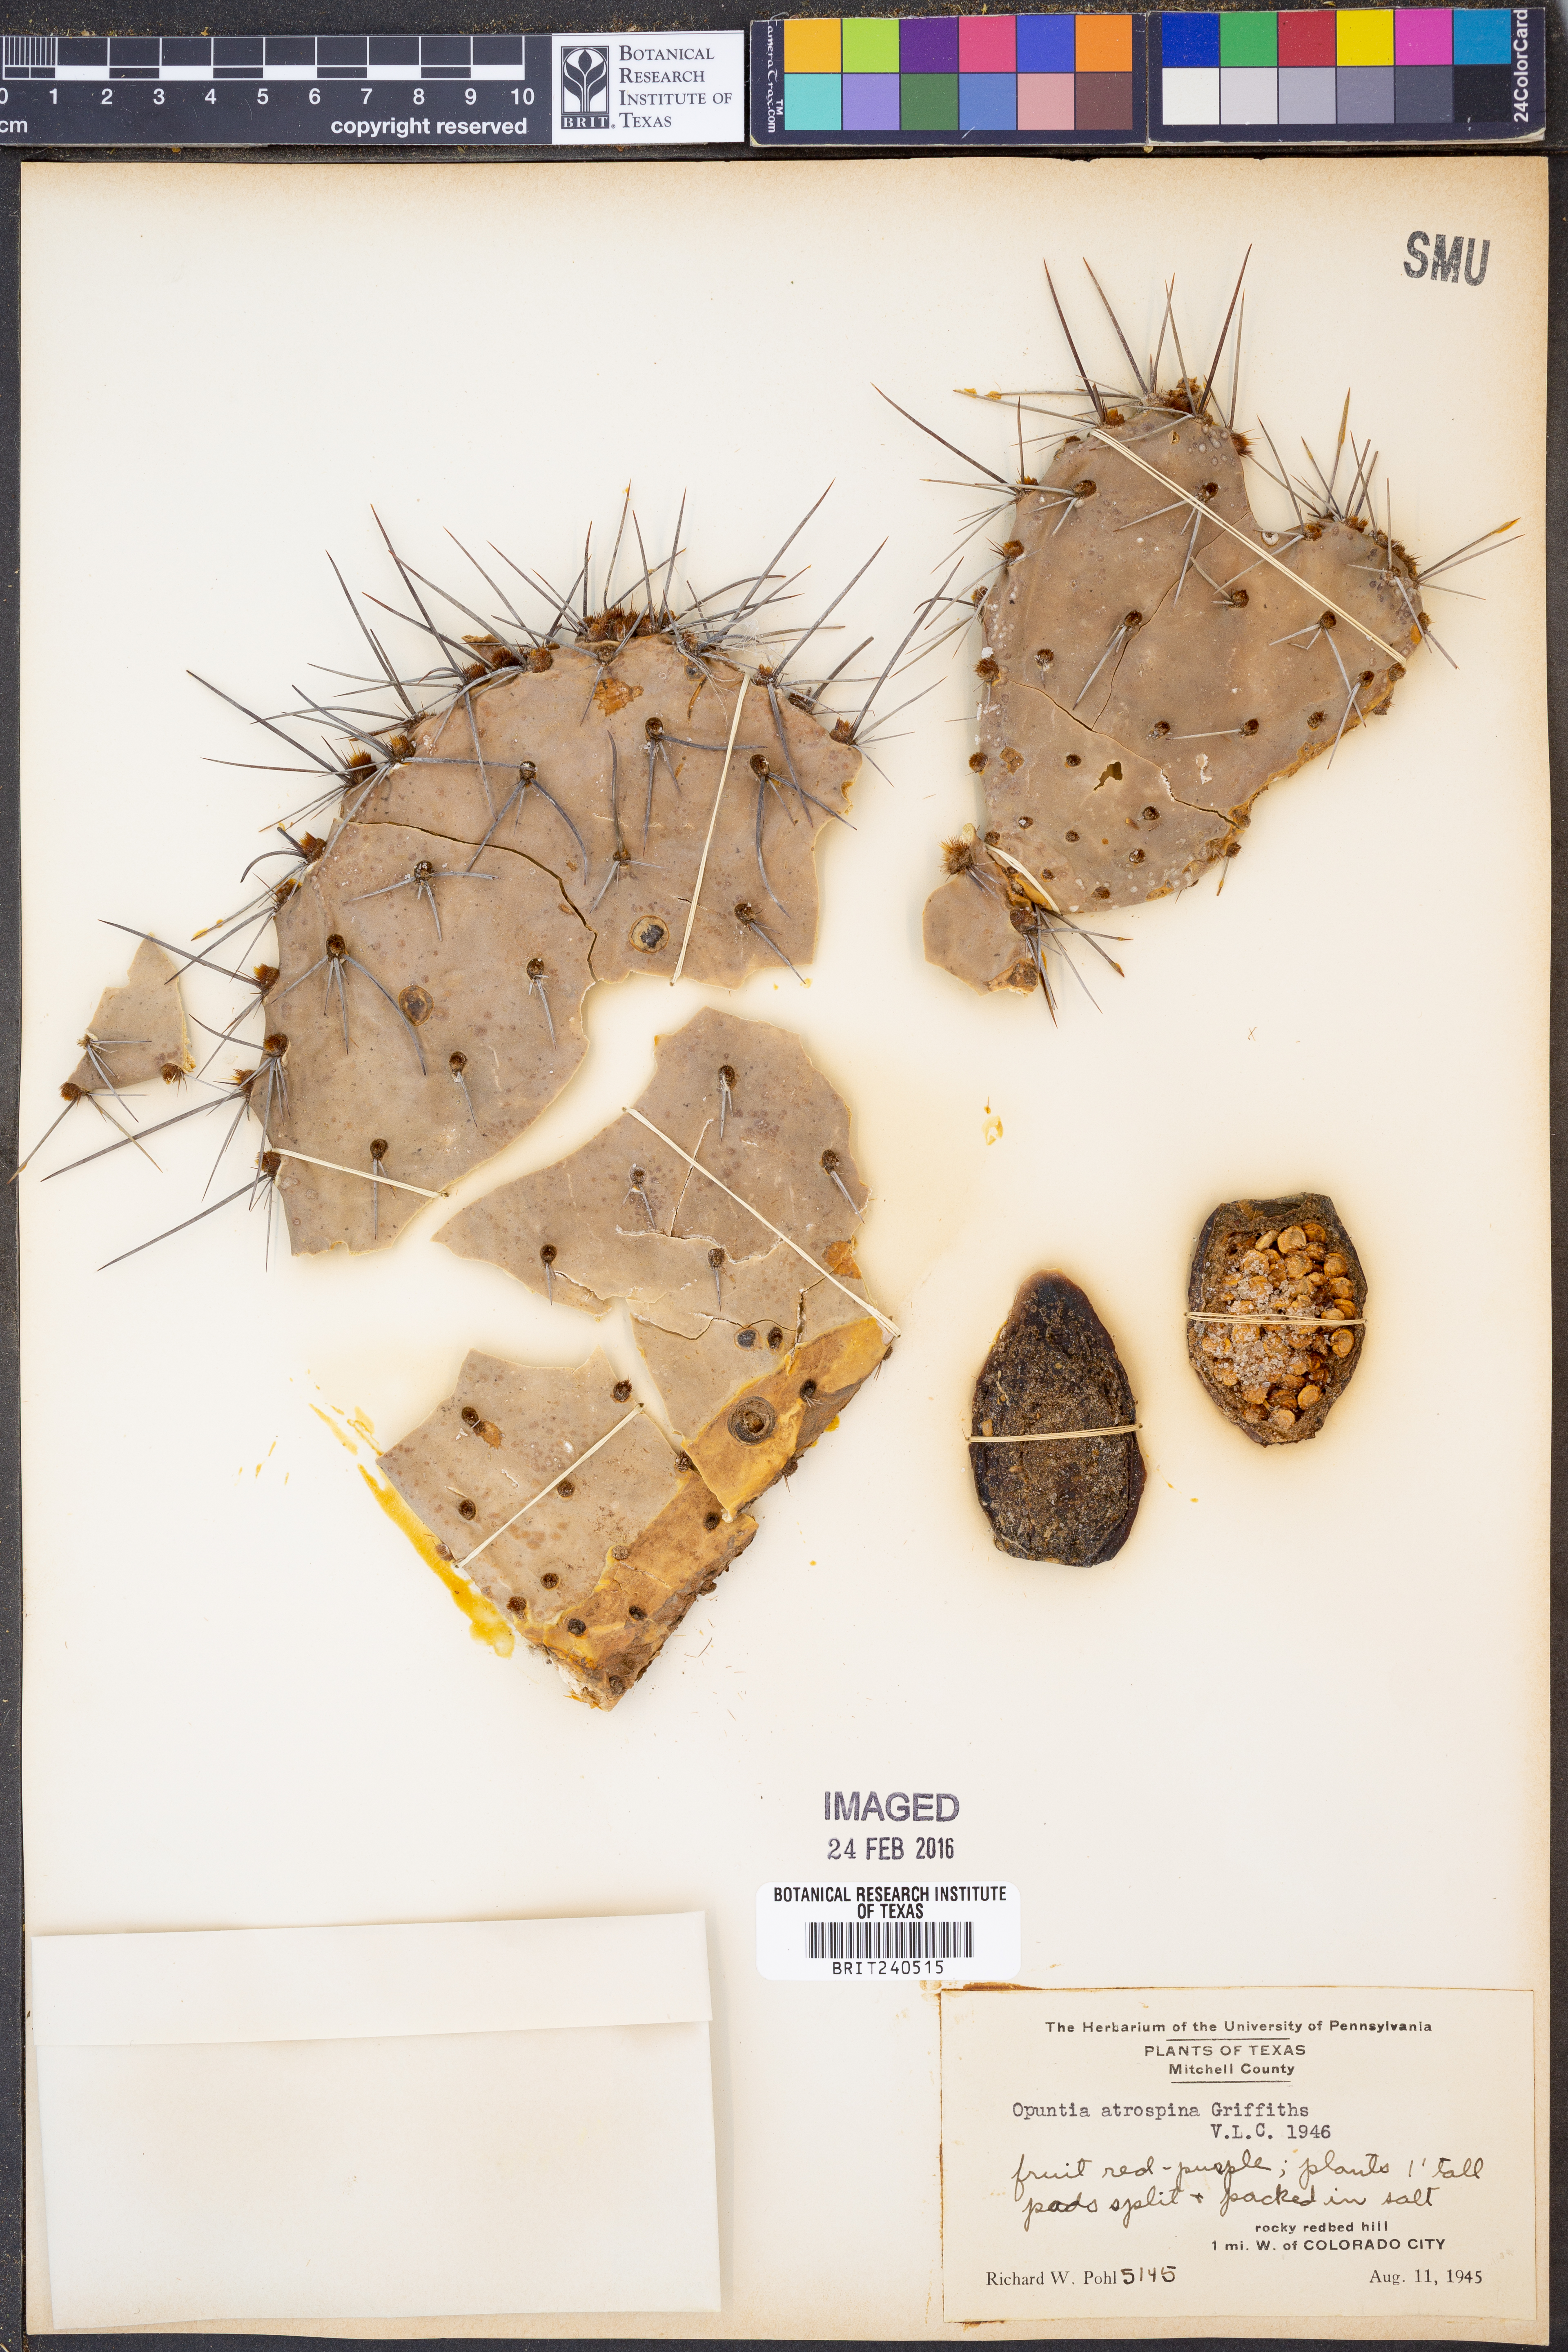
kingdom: Plantae
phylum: Tracheophyta
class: Magnoliopsida
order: Caryophyllales
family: Cactaceae
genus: Opuntia
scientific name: Opuntia engelmannii
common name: Cactus-apple
